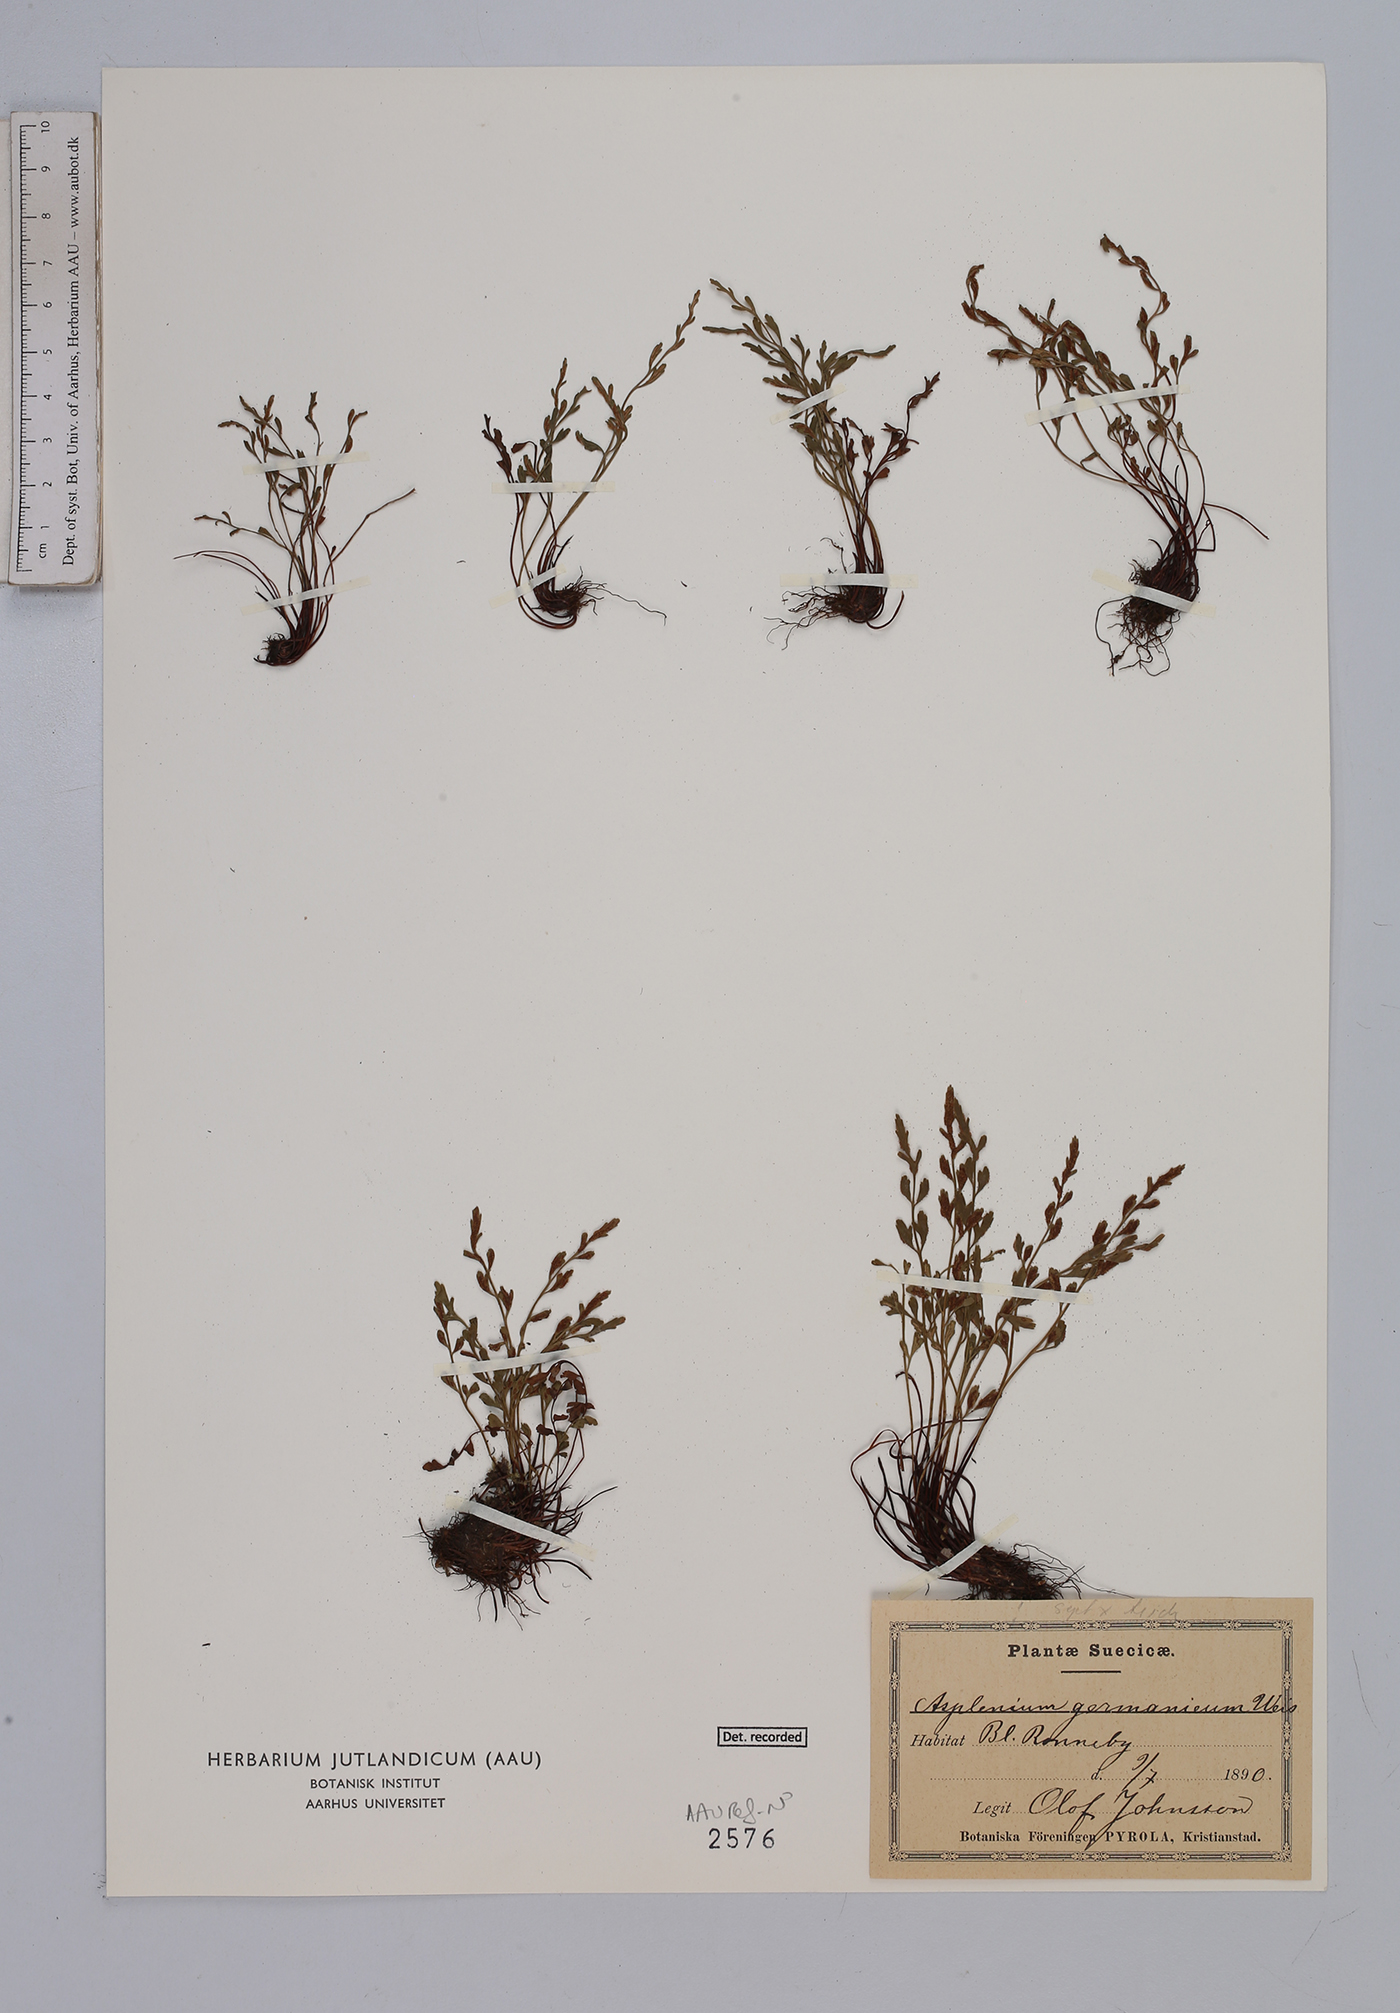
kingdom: Plantae
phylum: Tracheophyta
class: Polypodiopsida
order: Polypodiales
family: Aspleniaceae
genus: Asplenium
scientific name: Asplenium
